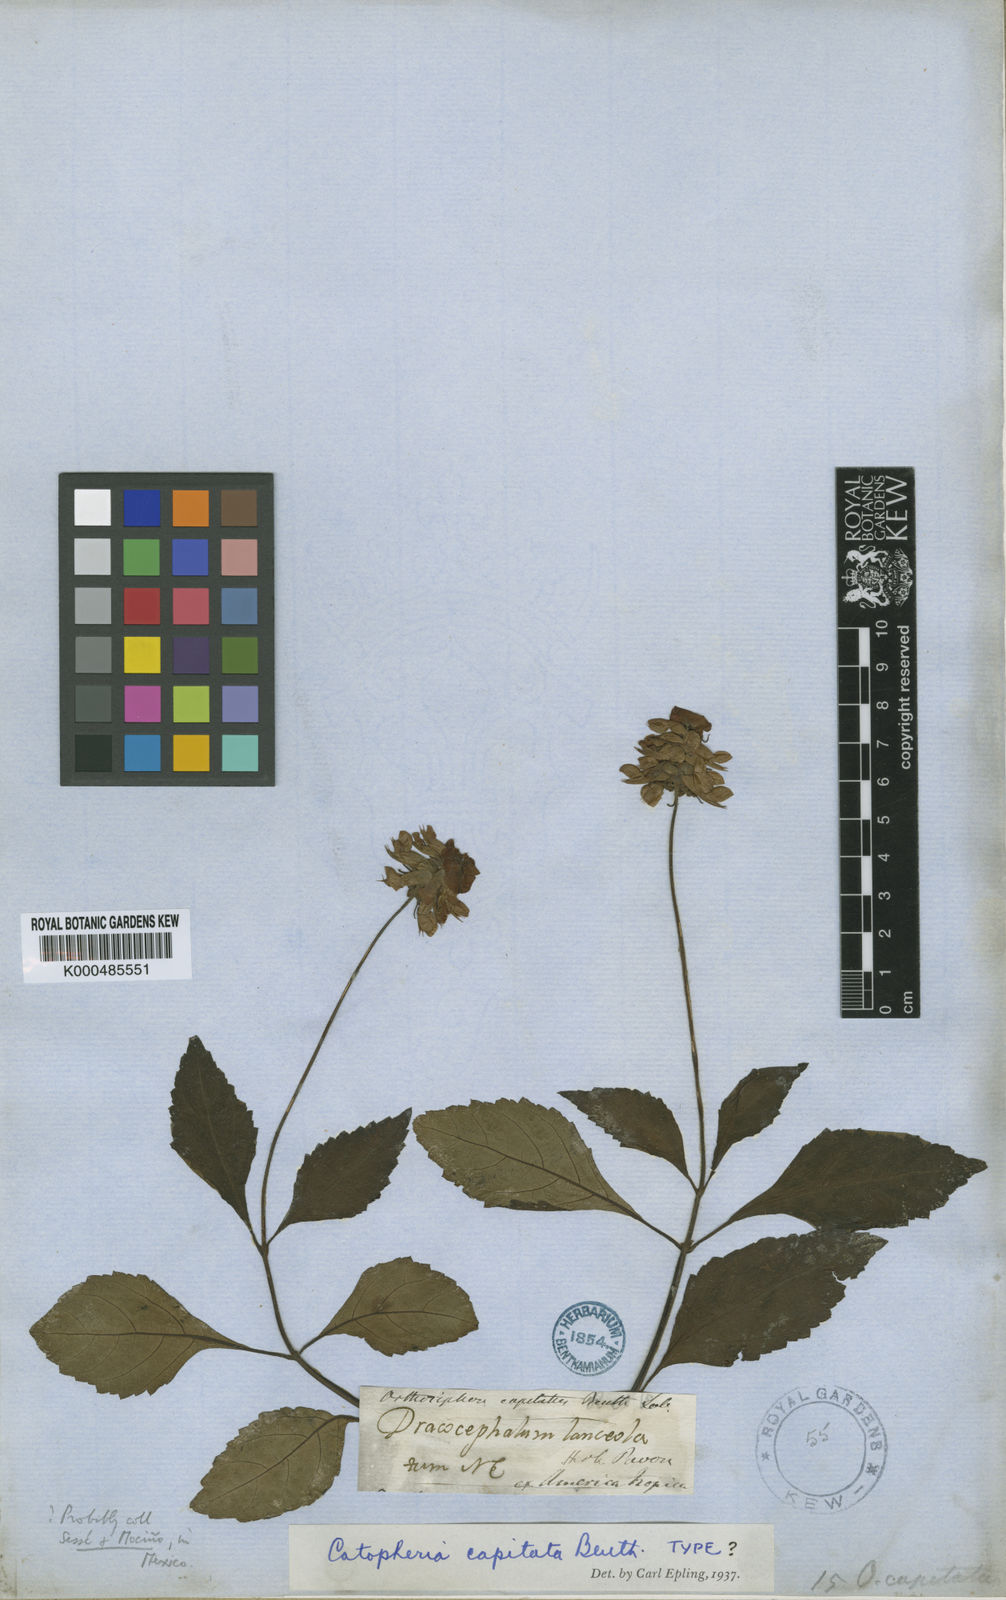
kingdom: Plantae
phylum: Tracheophyta
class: Magnoliopsida
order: Lamiales
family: Lamiaceae
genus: Catoferia
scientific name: Catoferia capitata
